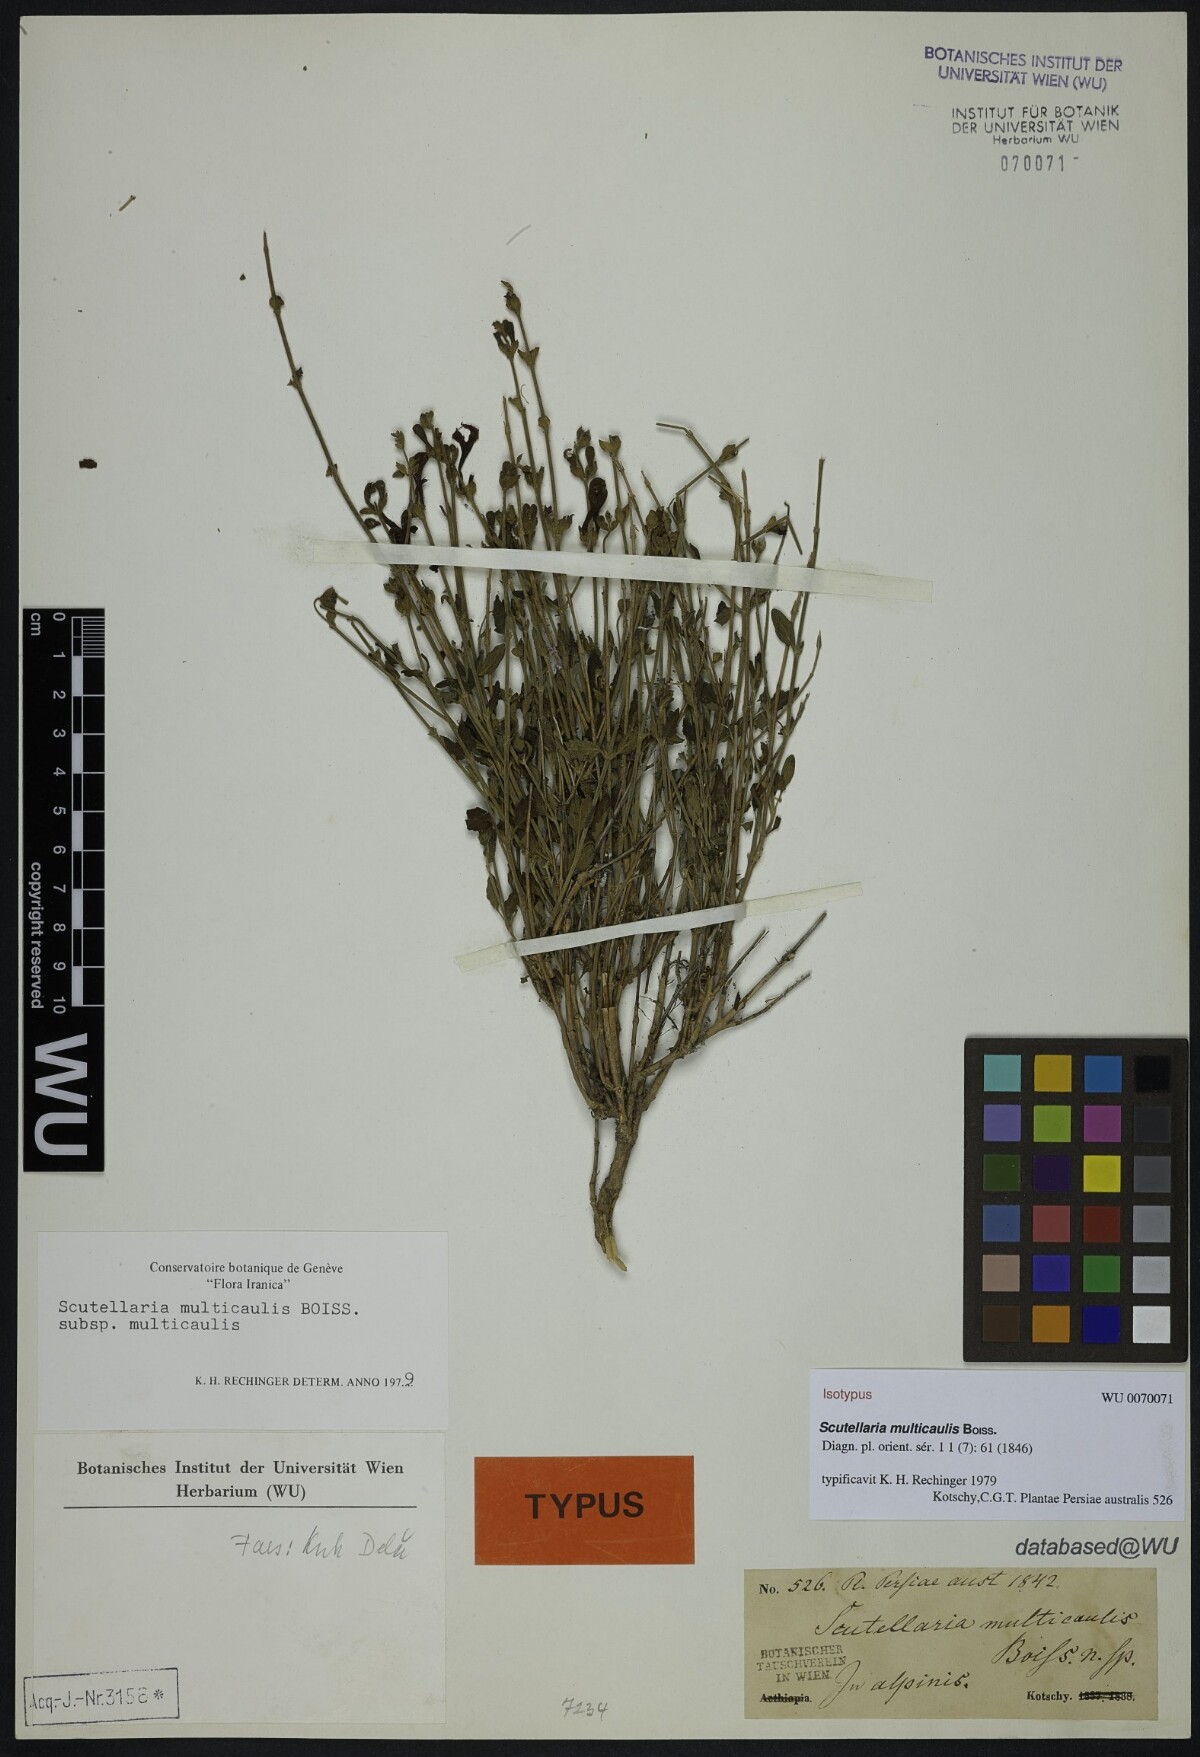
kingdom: Plantae
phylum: Tracheophyta
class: Magnoliopsida
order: Lamiales
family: Lamiaceae
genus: Scutellaria
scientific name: Scutellaria multicaulis
